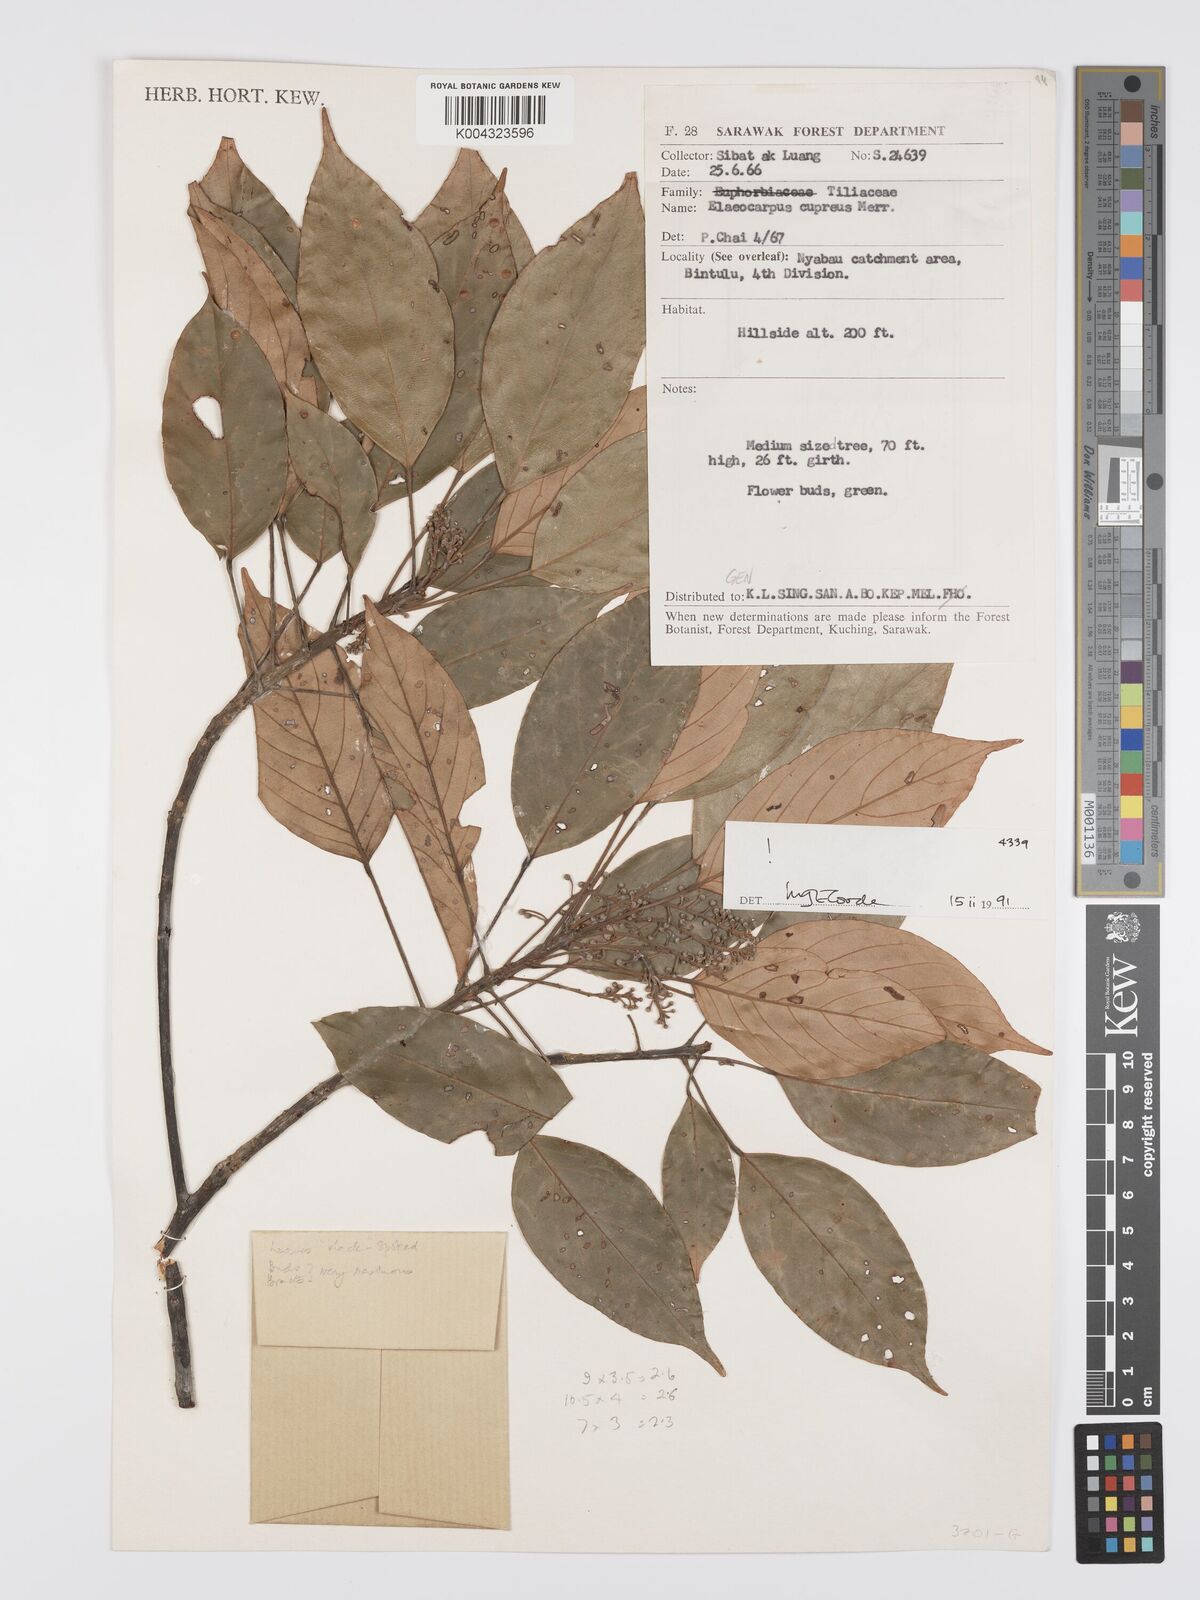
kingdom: Plantae
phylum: Tracheophyta
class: Magnoliopsida
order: Oxalidales
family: Elaeocarpaceae
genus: Elaeocarpus
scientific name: Elaeocarpus cupreus
